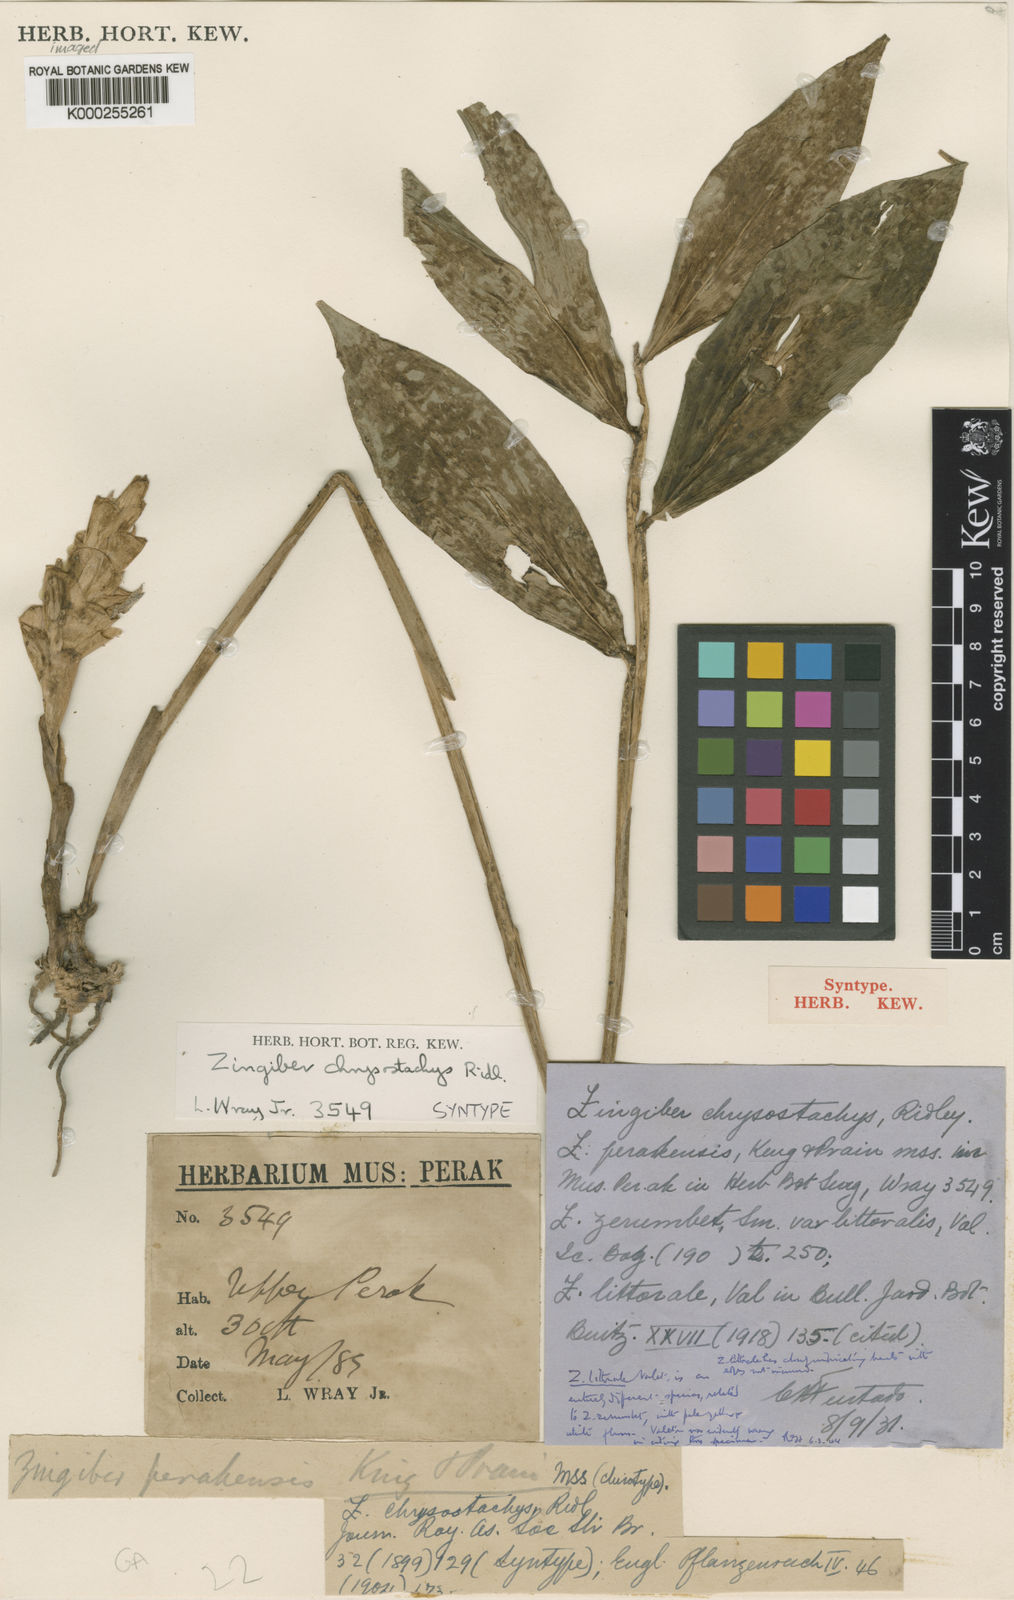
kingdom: Plantae
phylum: Tracheophyta
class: Liliopsida
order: Zingiberales
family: Zingiberaceae
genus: Zingiber
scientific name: Zingiber chrysostachys
